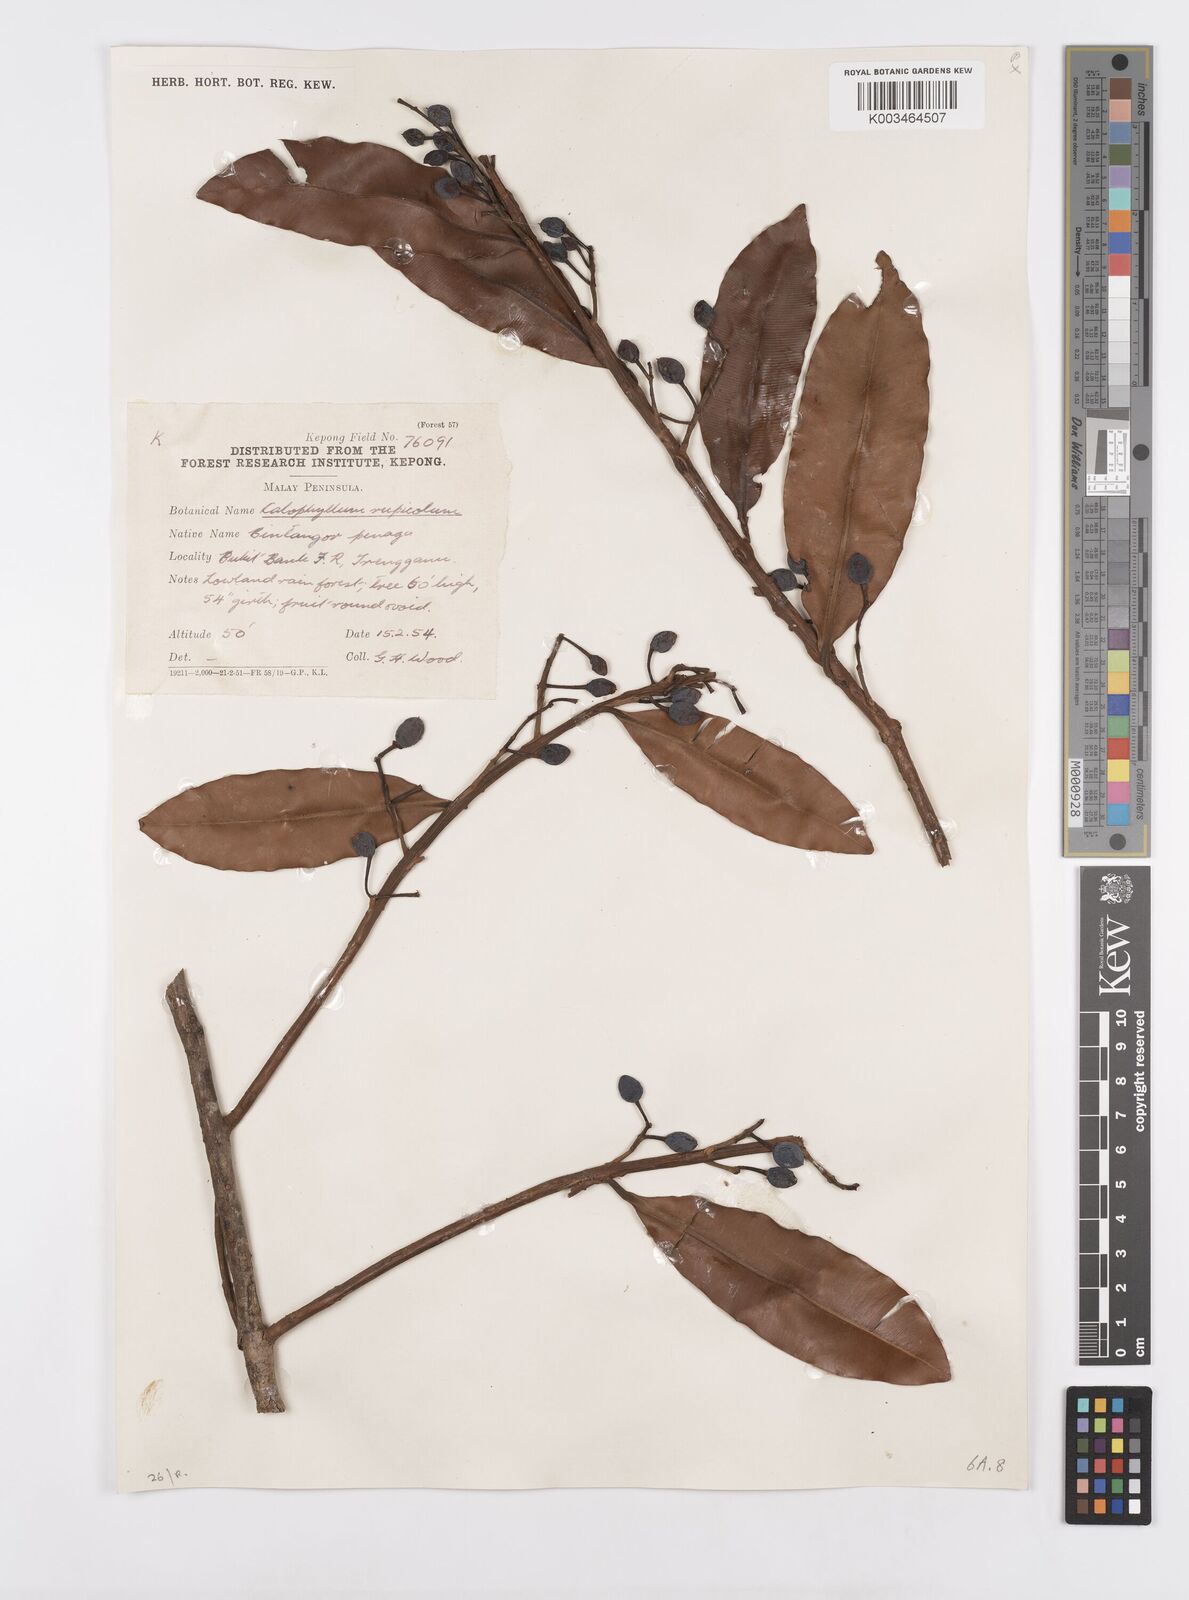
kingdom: Plantae
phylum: Tracheophyta
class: Magnoliopsida
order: Malpighiales
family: Calophyllaceae
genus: Calophyllum
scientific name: Calophyllum rupicola
